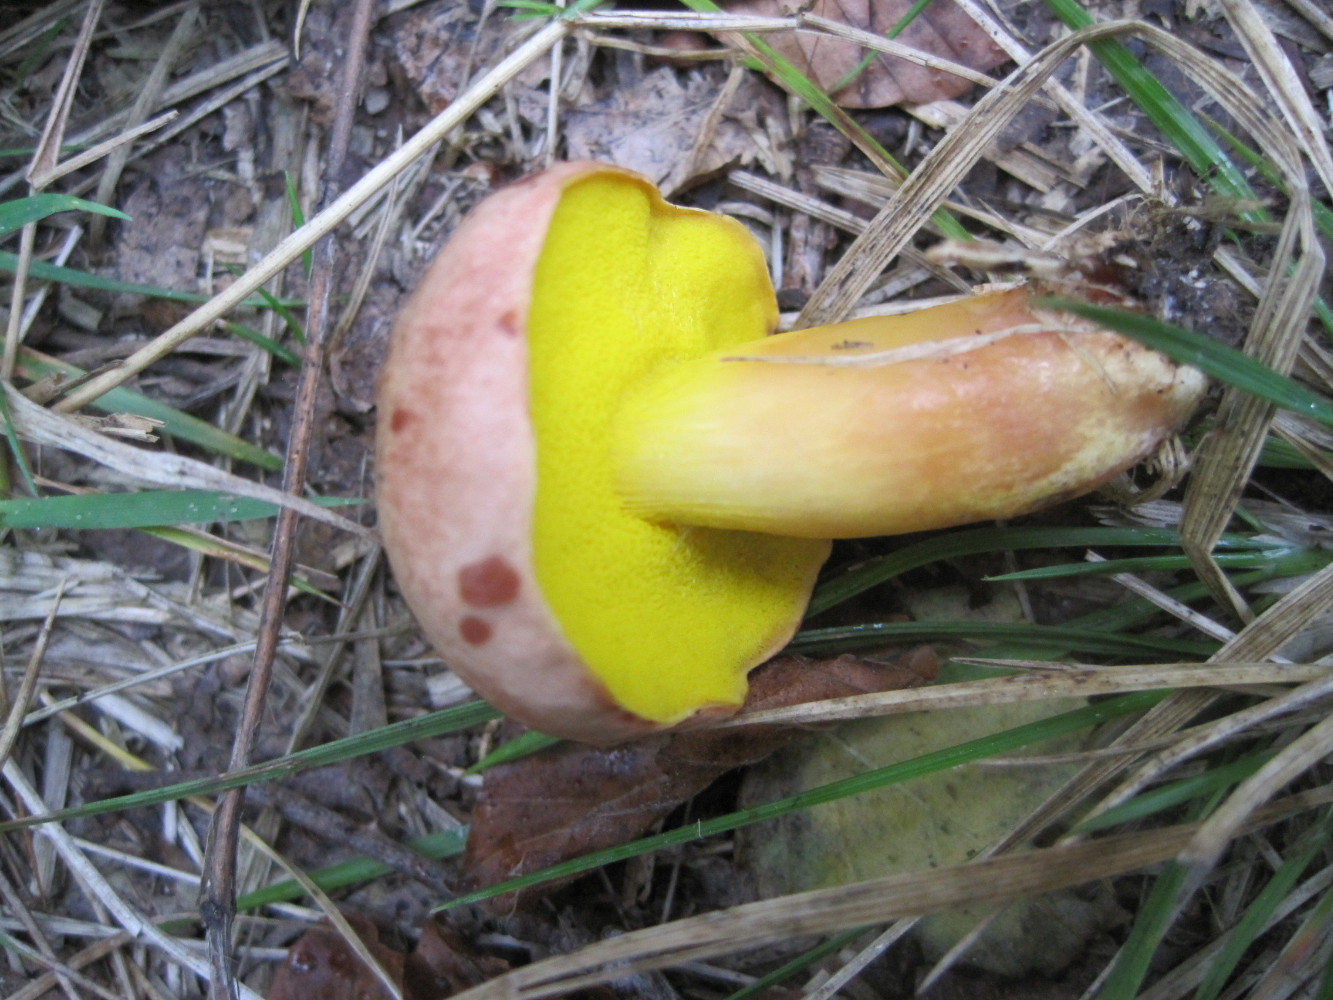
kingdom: Fungi
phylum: Basidiomycota
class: Agaricomycetes
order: Boletales
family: Boletaceae
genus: Aureoboletus
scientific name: Aureoboletus gentilis
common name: guldrørhat
